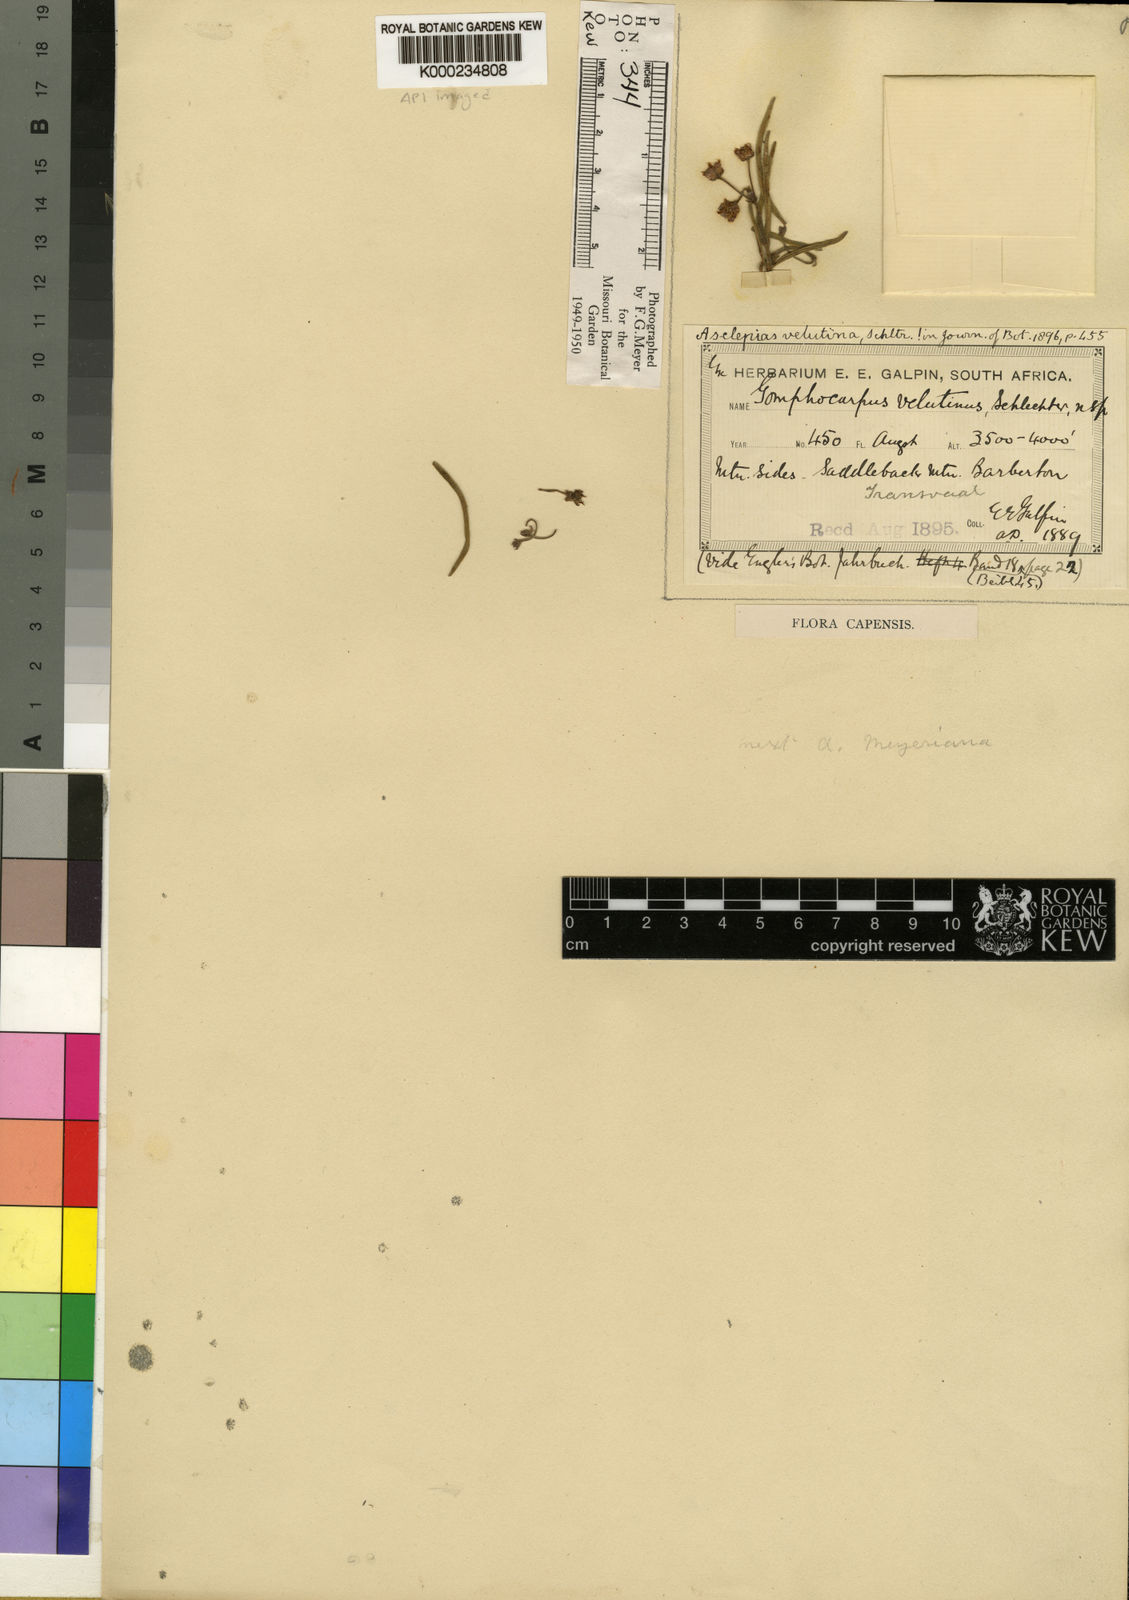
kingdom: Plantae
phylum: Tracheophyta
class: Magnoliopsida
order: Gentianales
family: Apocynaceae
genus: Asclepias
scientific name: Asclepias velutina
